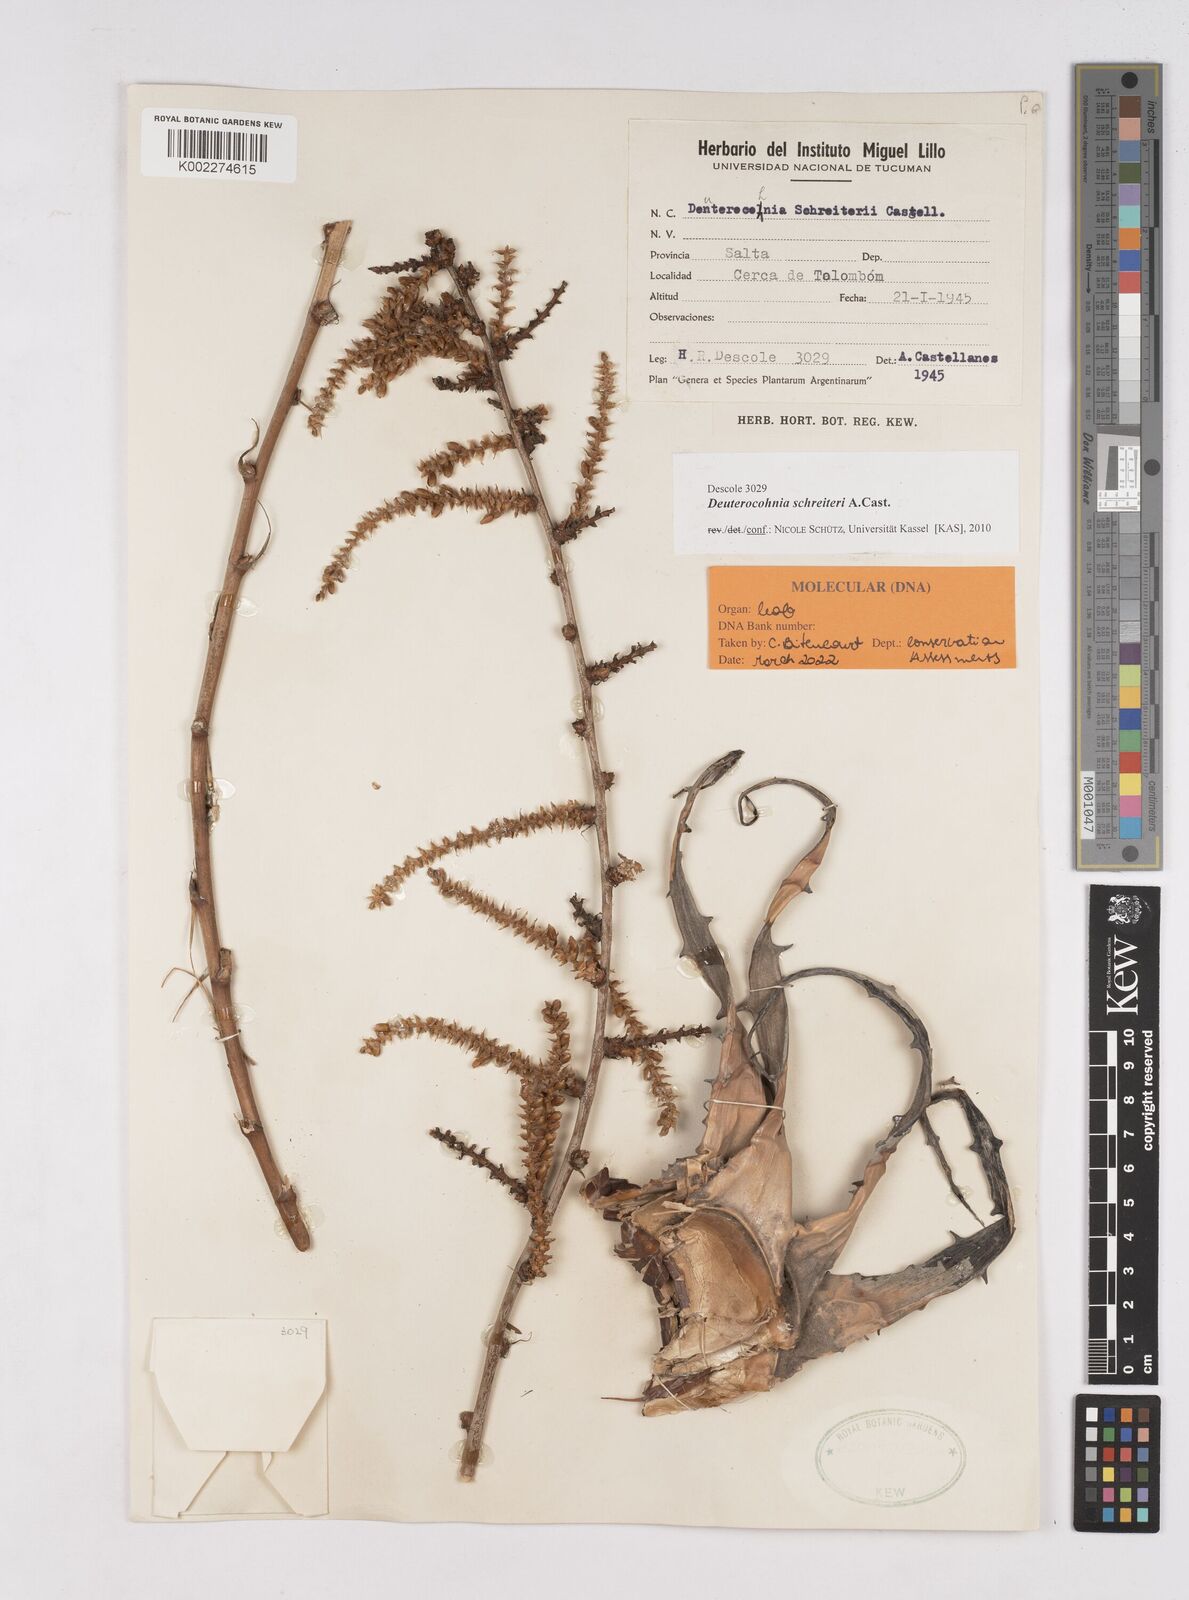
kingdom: Plantae
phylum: Tracheophyta
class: Liliopsida
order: Poales
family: Bromeliaceae
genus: Deuterocohnia
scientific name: Deuterocohnia schreiteri
